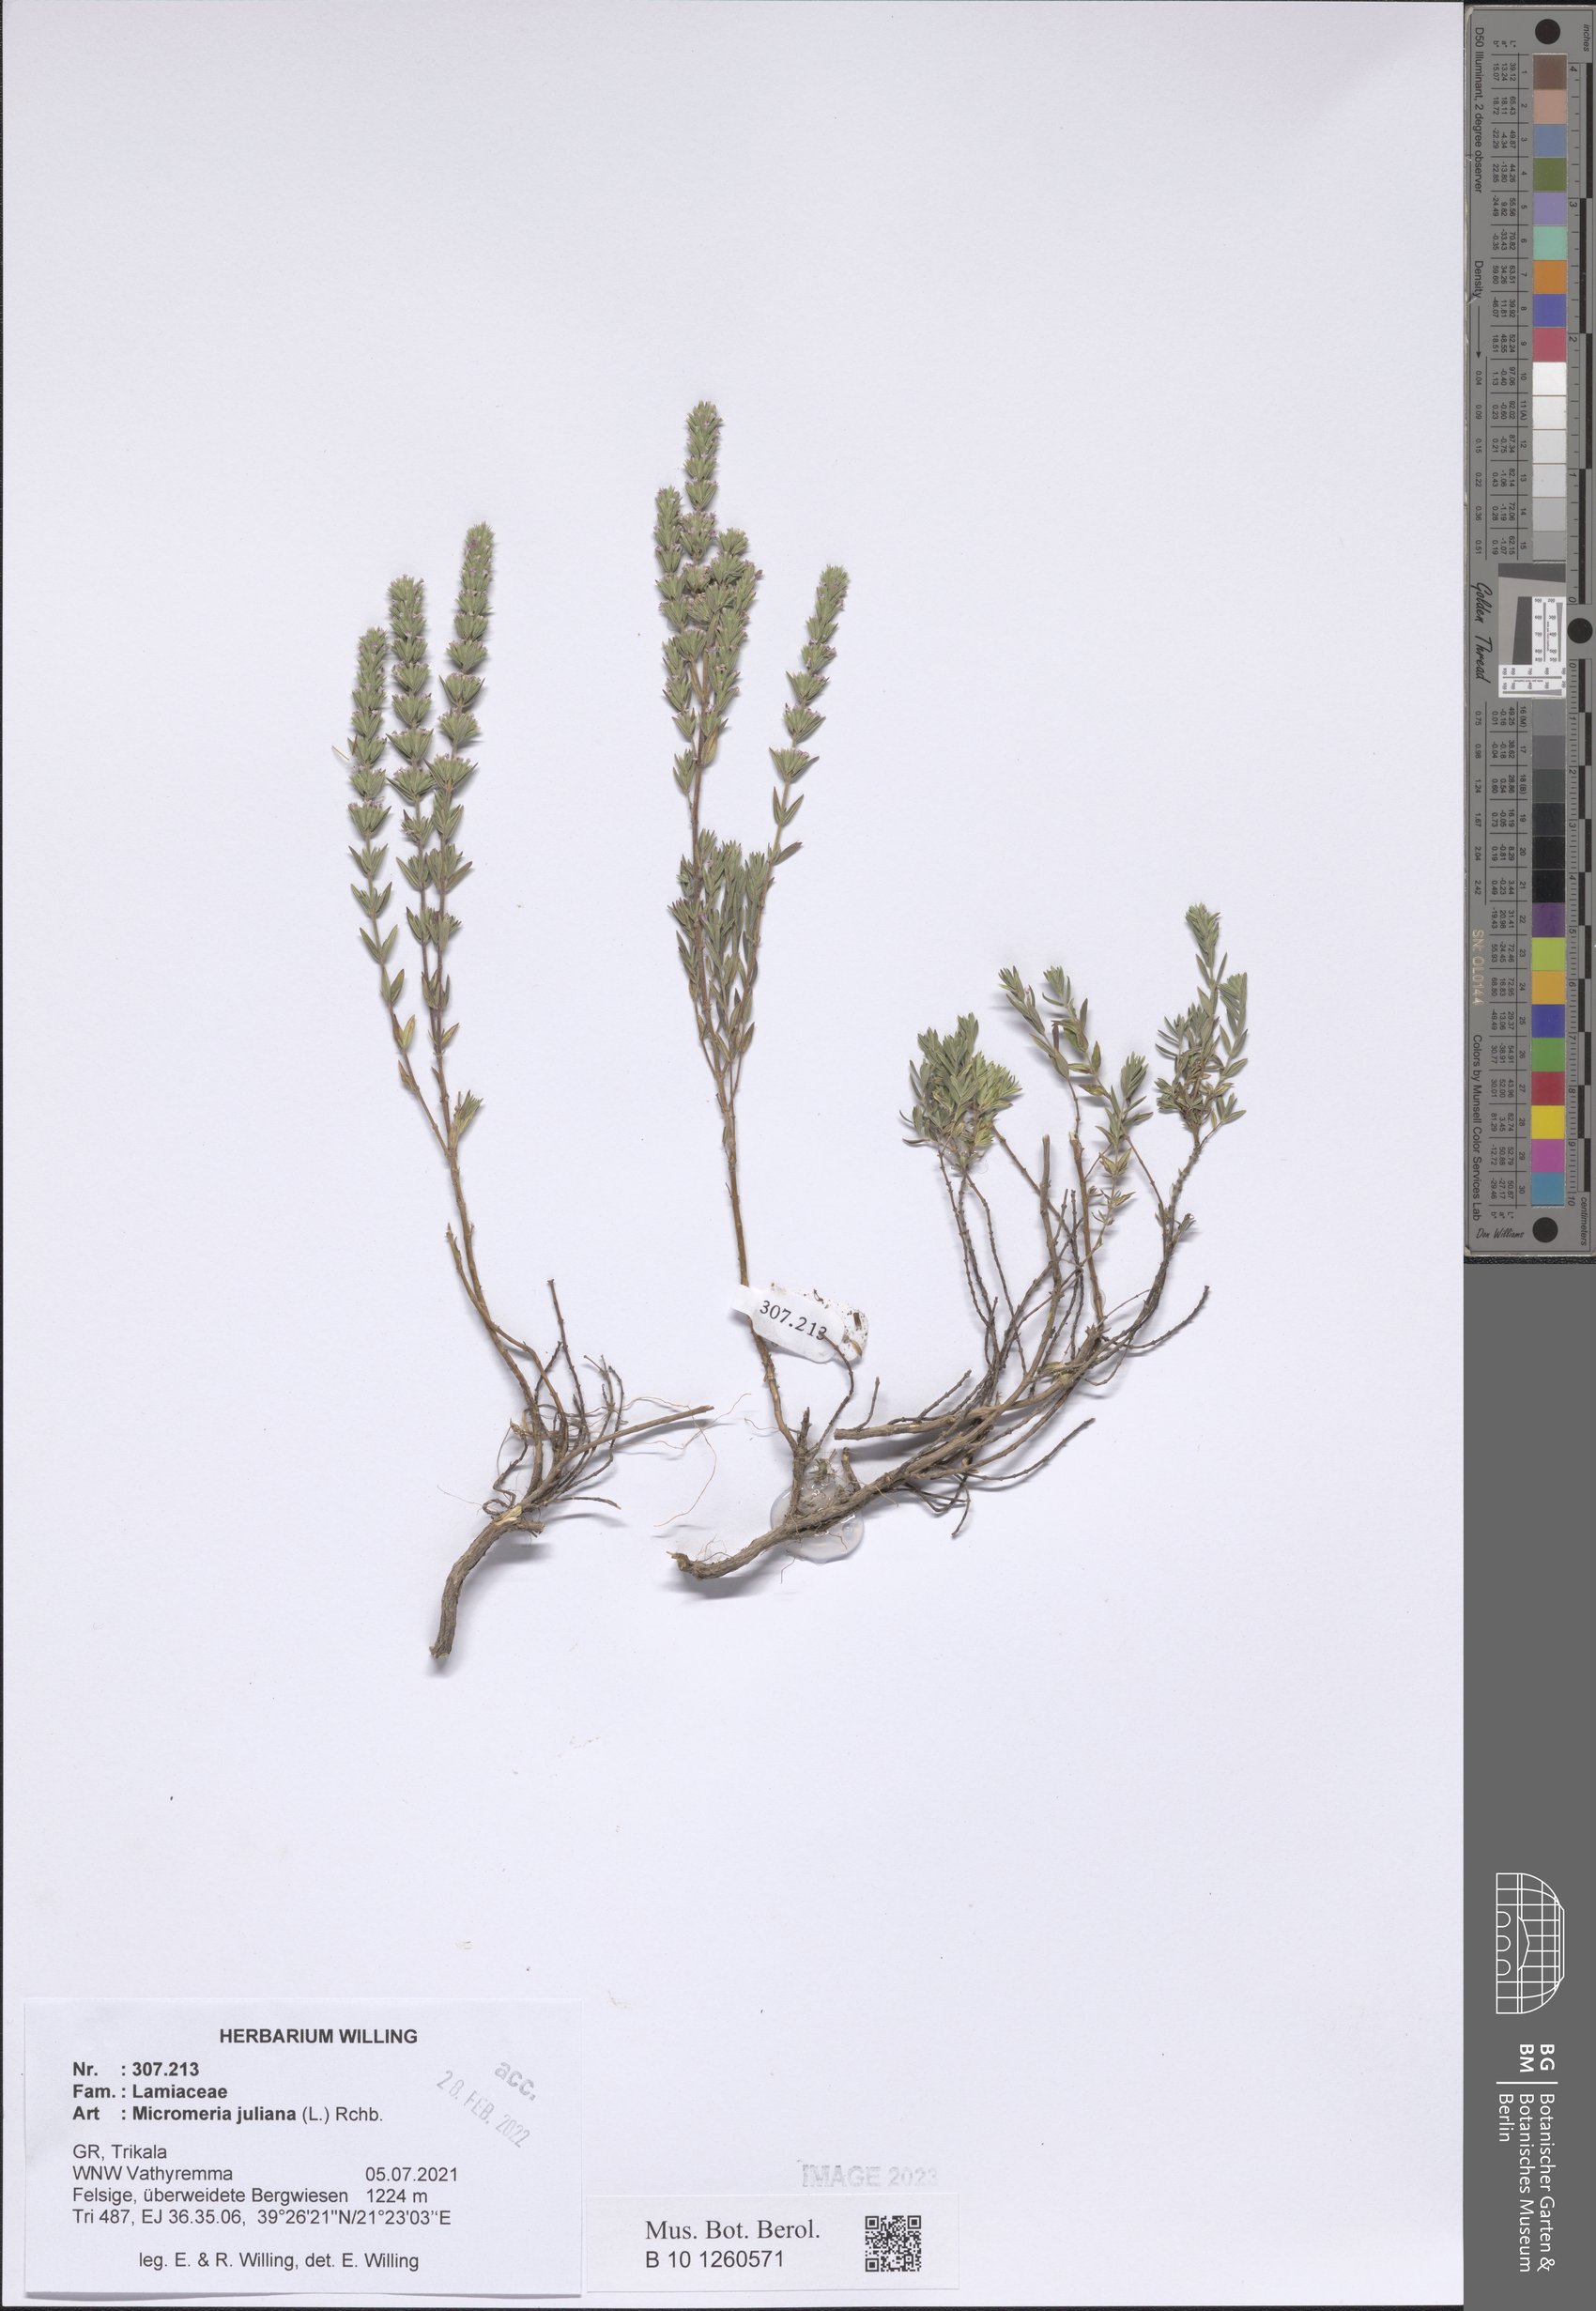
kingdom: Plantae
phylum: Tracheophyta
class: Magnoliopsida
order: Lamiales
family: Lamiaceae
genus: Micromeria
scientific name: Micromeria juliana
